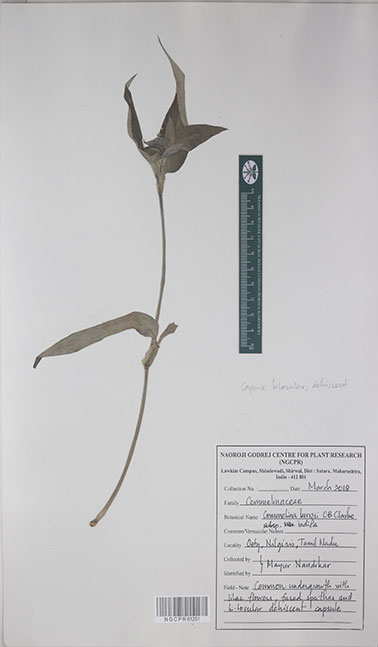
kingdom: Plantae
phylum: Tracheophyta
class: Liliopsida
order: Commelinales
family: Commelinaceae
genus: Commelina
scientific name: Commelina undulata
